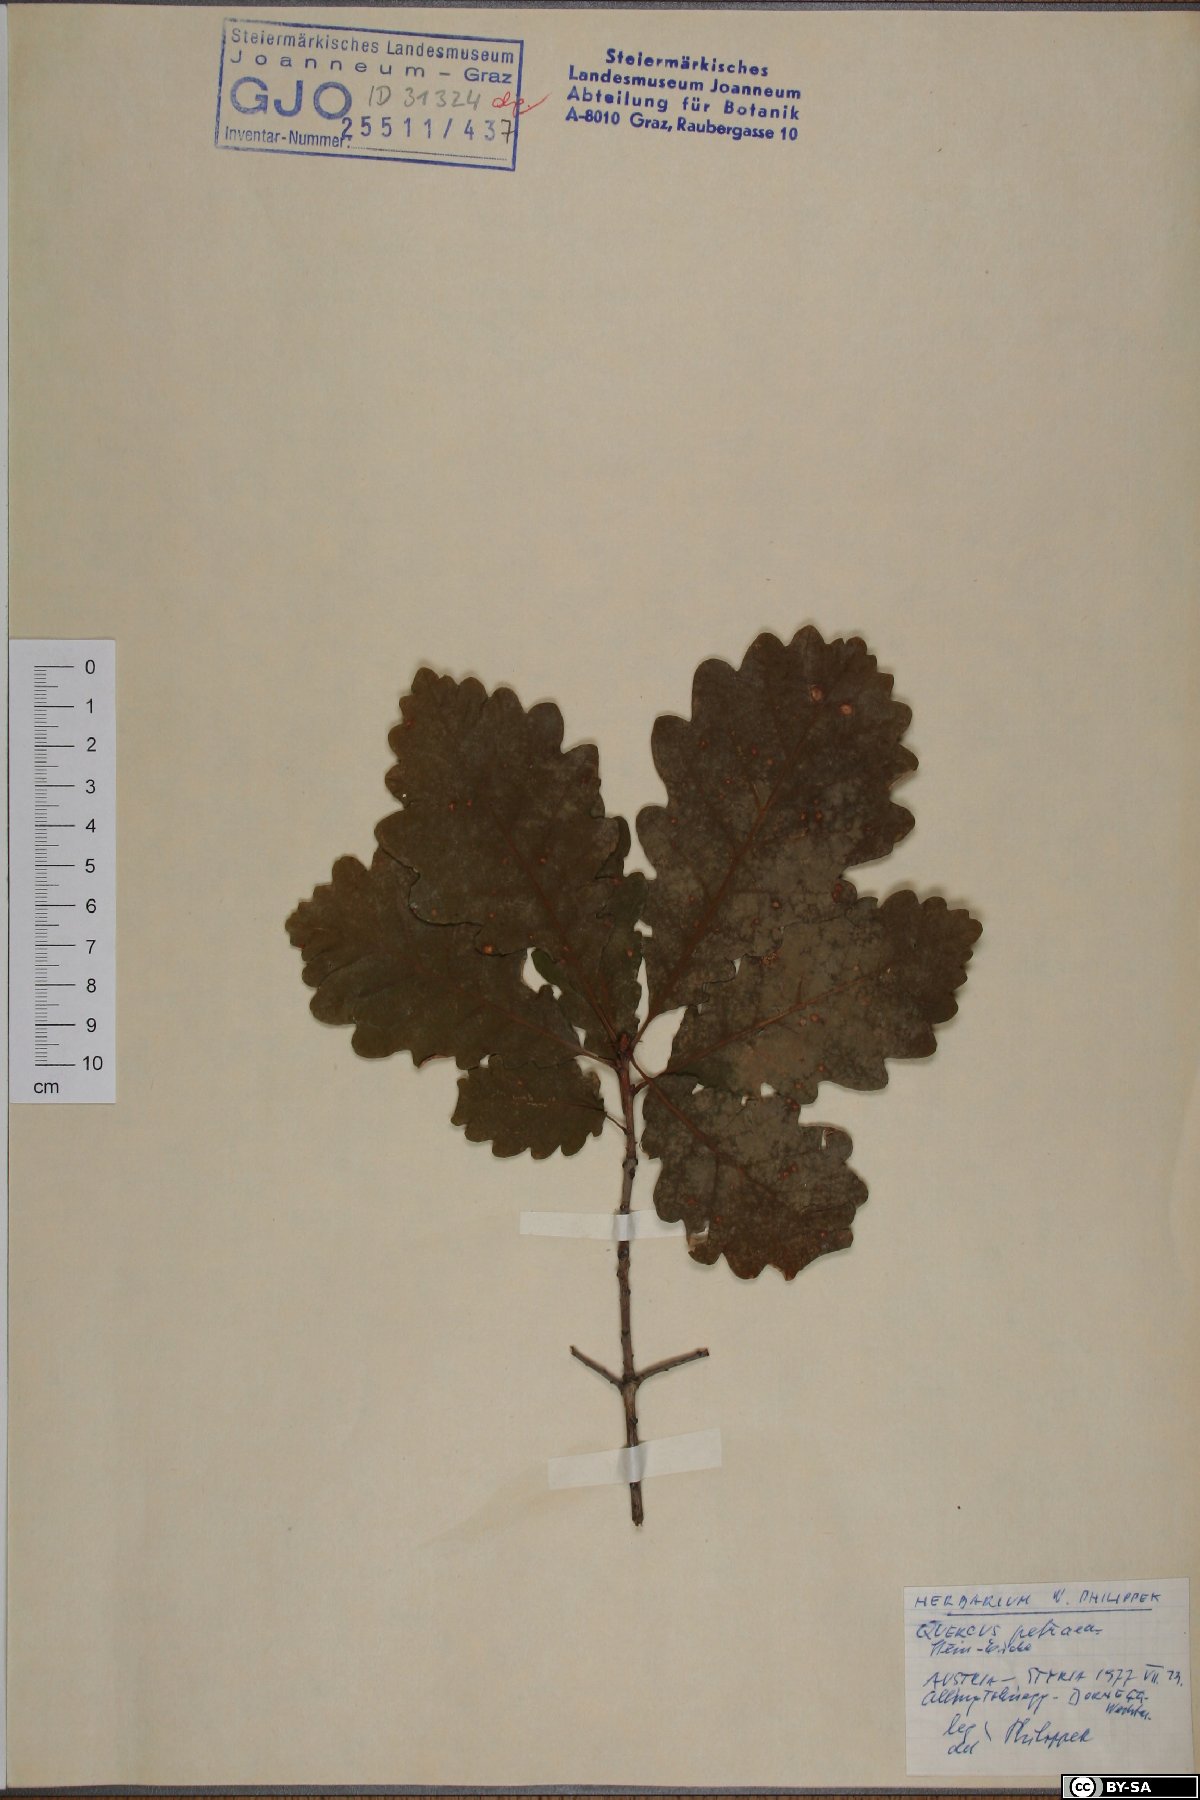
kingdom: Plantae
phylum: Tracheophyta
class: Magnoliopsida
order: Fagales
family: Fagaceae
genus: Quercus
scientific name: Quercus petraea
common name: Sessile oak
